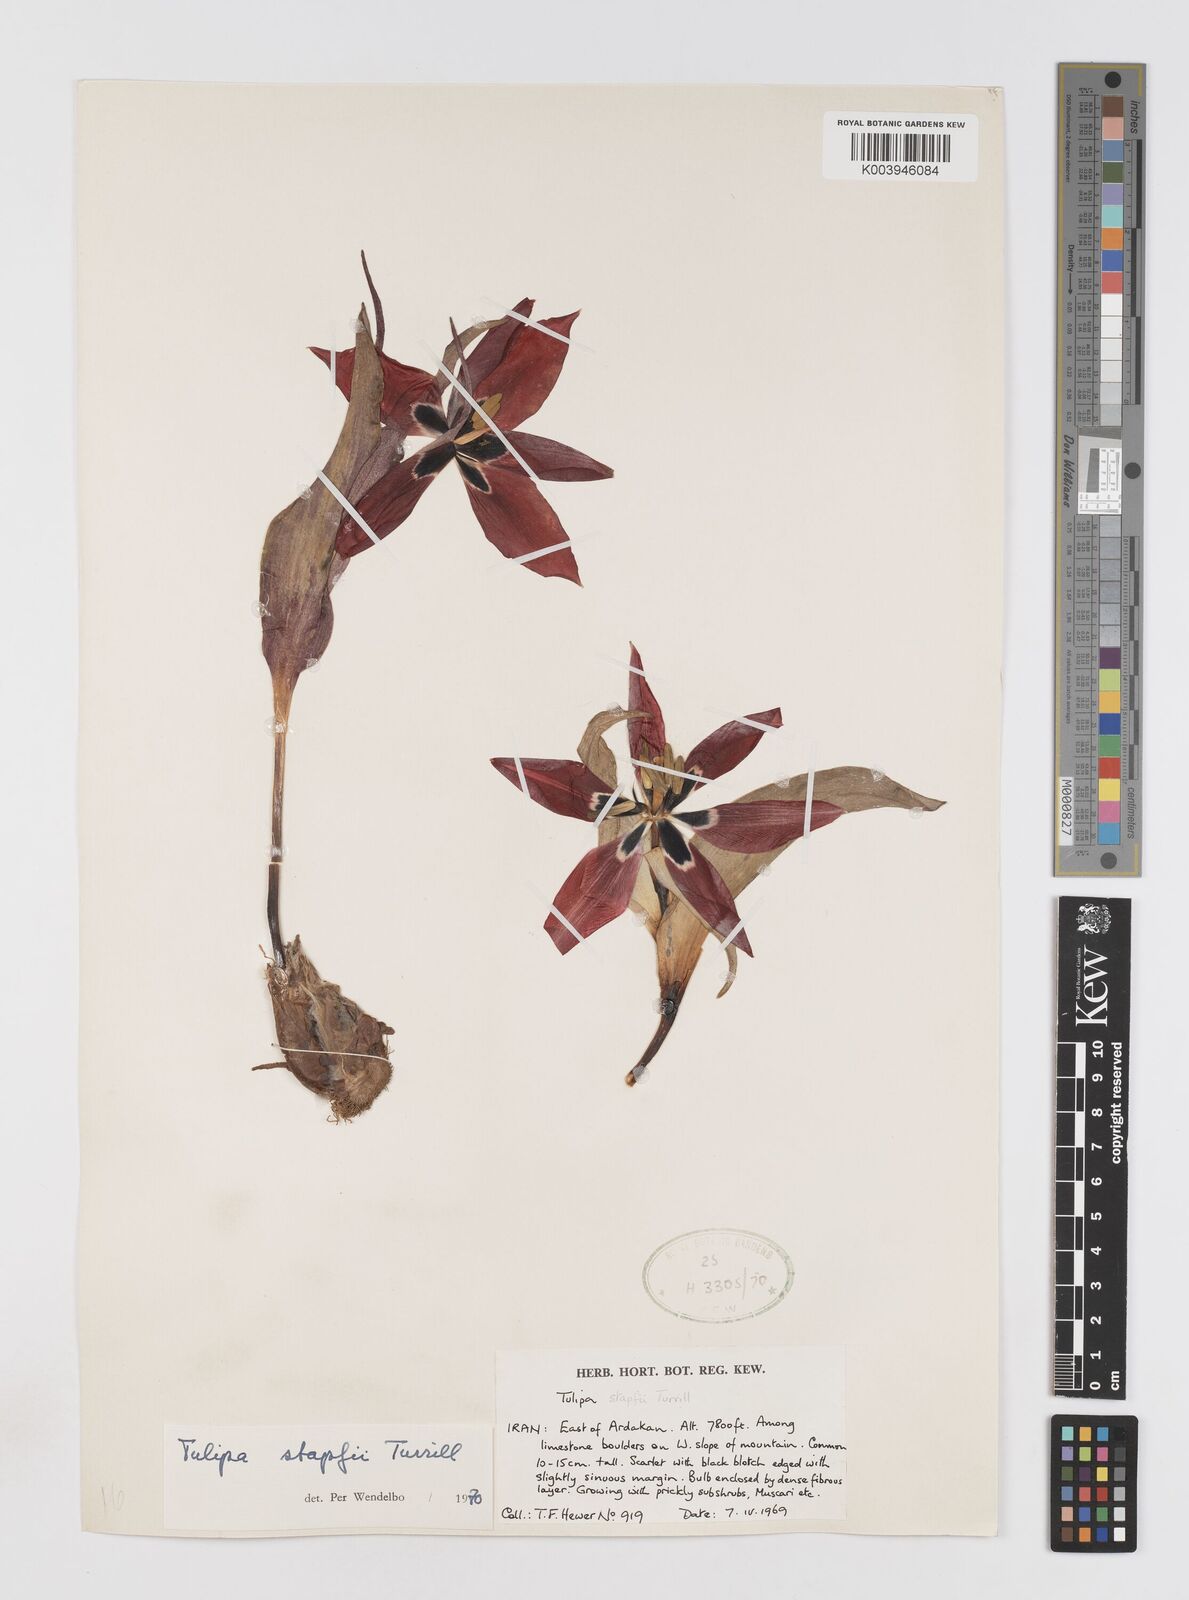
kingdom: Plantae
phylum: Tracheophyta
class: Liliopsida
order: Liliales
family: Liliaceae
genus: Tulipa
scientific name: Tulipa systola
